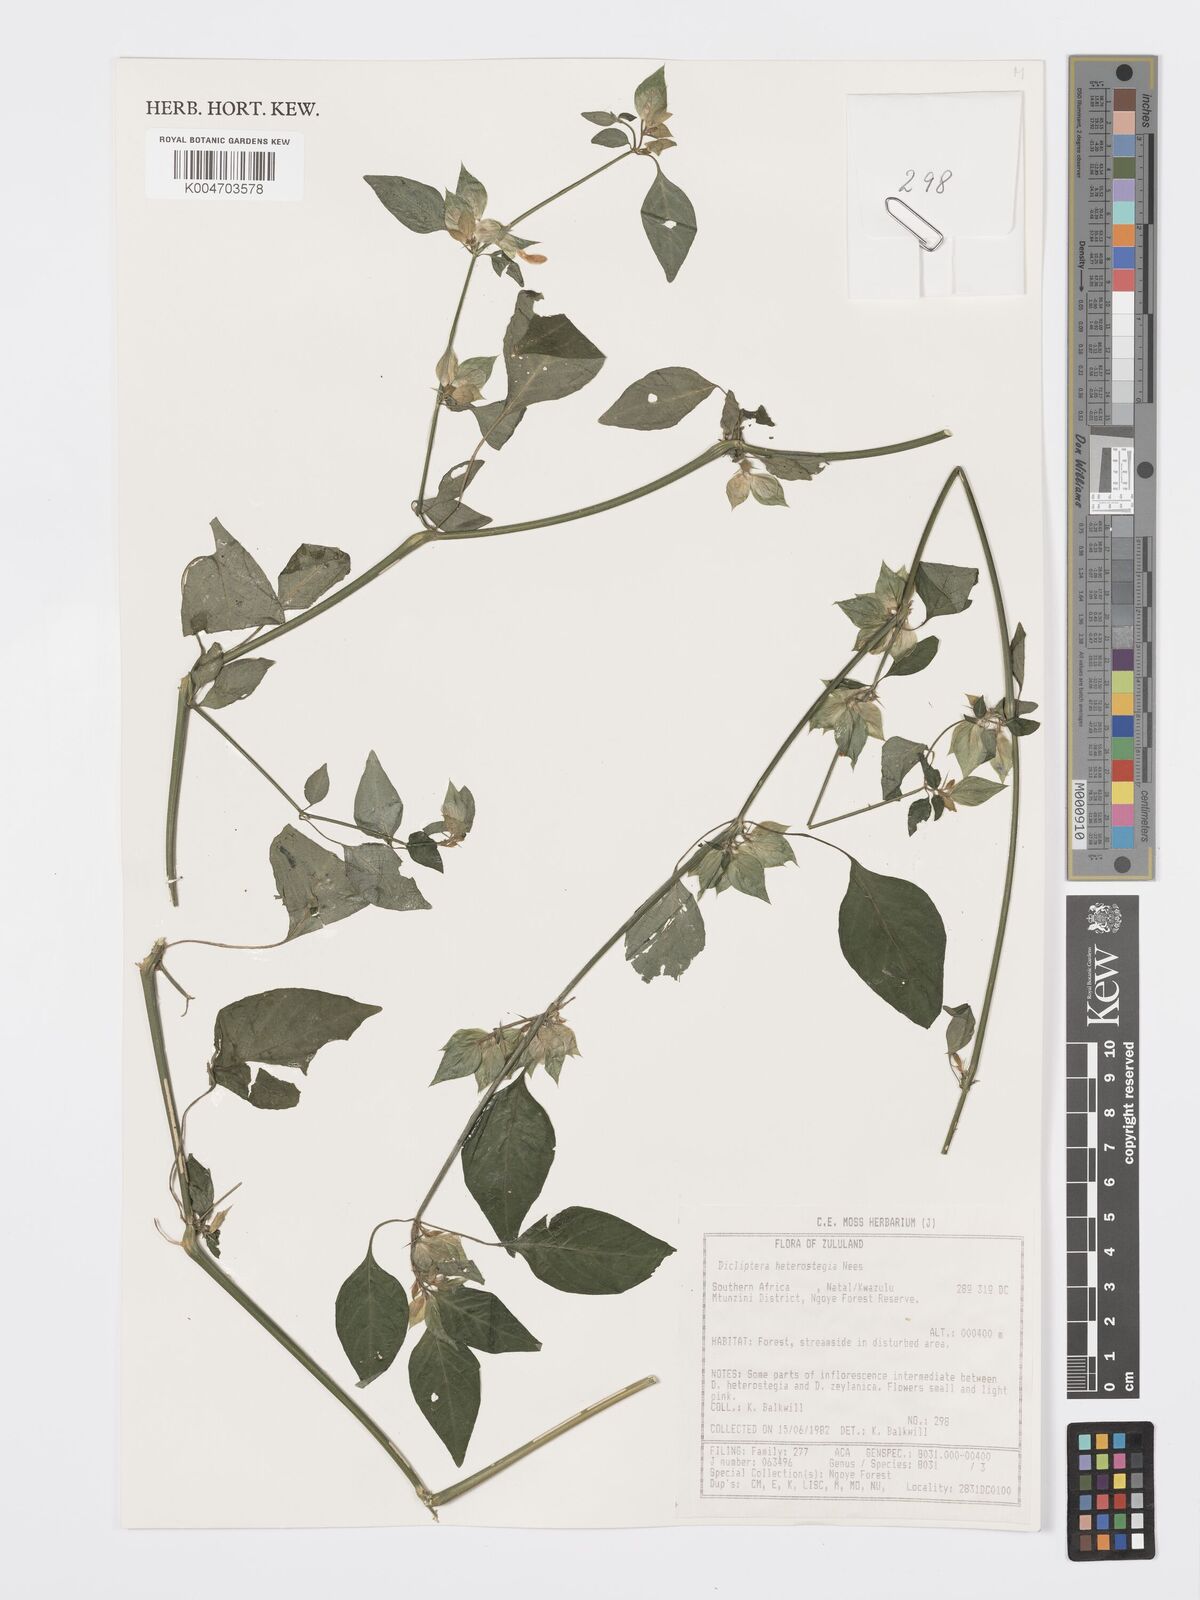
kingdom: Plantae
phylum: Tracheophyta
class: Magnoliopsida
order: Lamiales
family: Acanthaceae
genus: Dicliptera
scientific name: Dicliptera heterostegia
